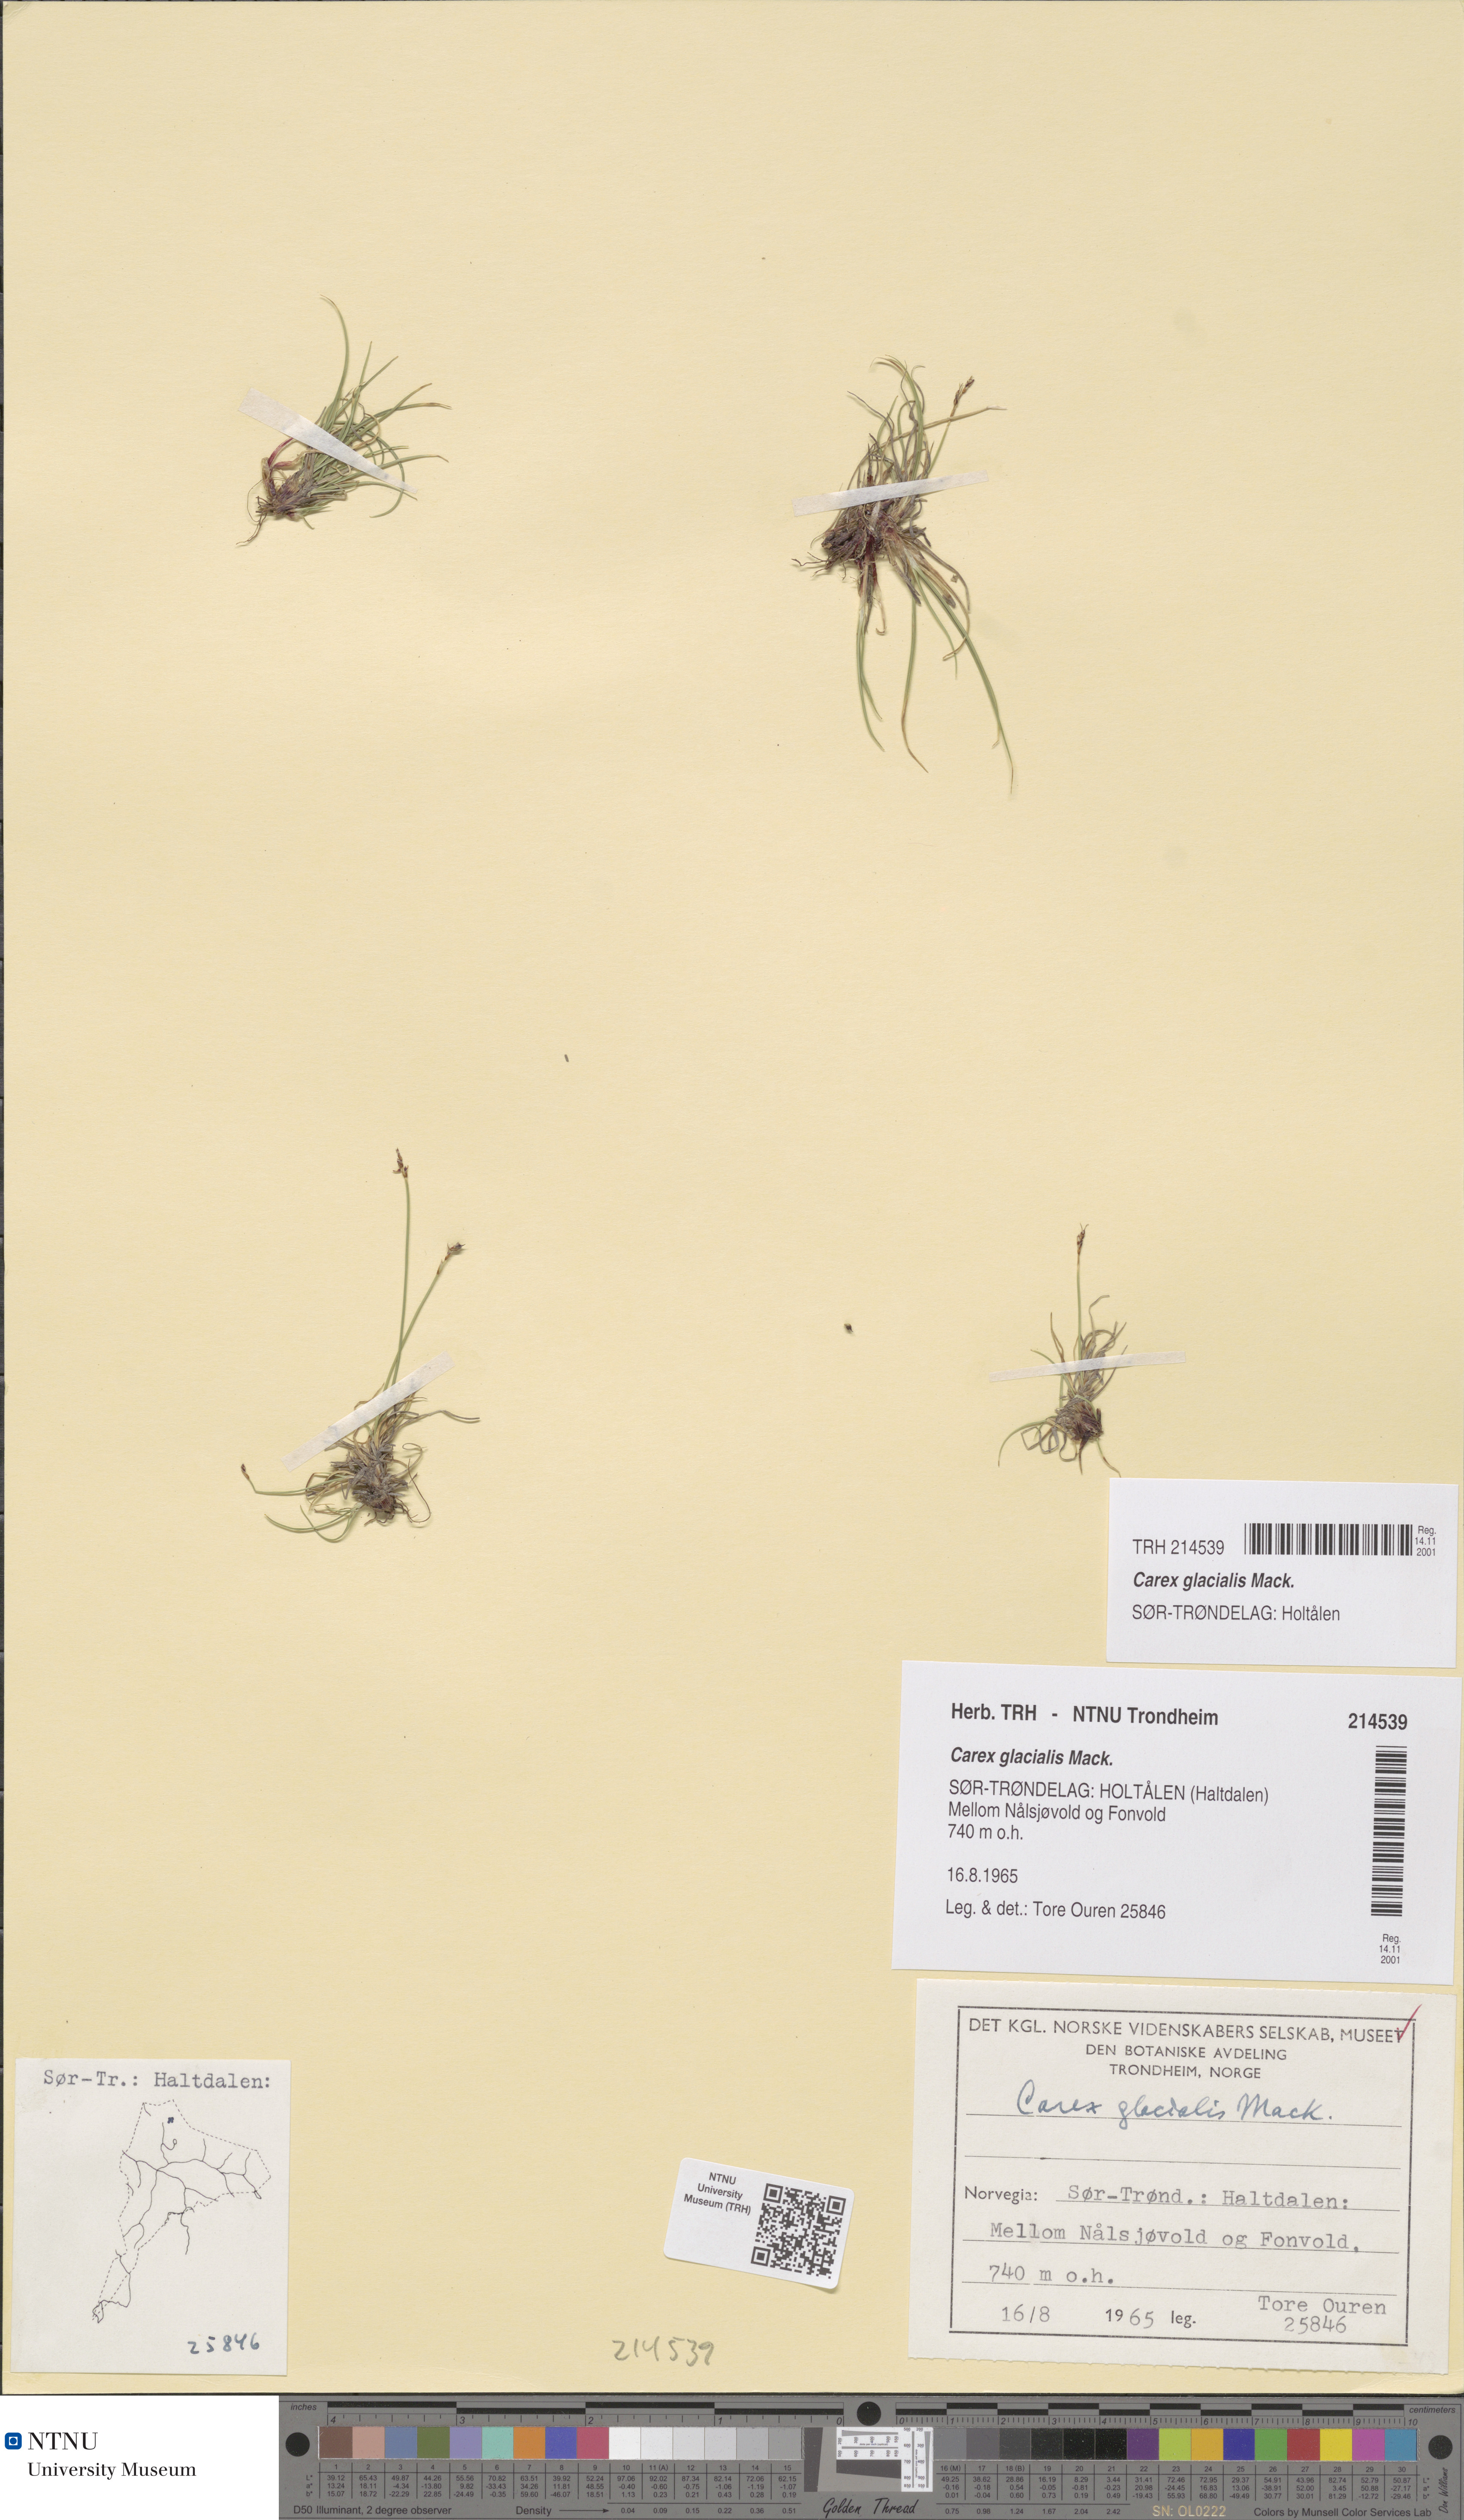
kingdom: Plantae
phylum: Tracheophyta
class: Liliopsida
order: Poales
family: Cyperaceae
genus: Carex
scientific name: Carex glacialis
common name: Newfoundland sedge
